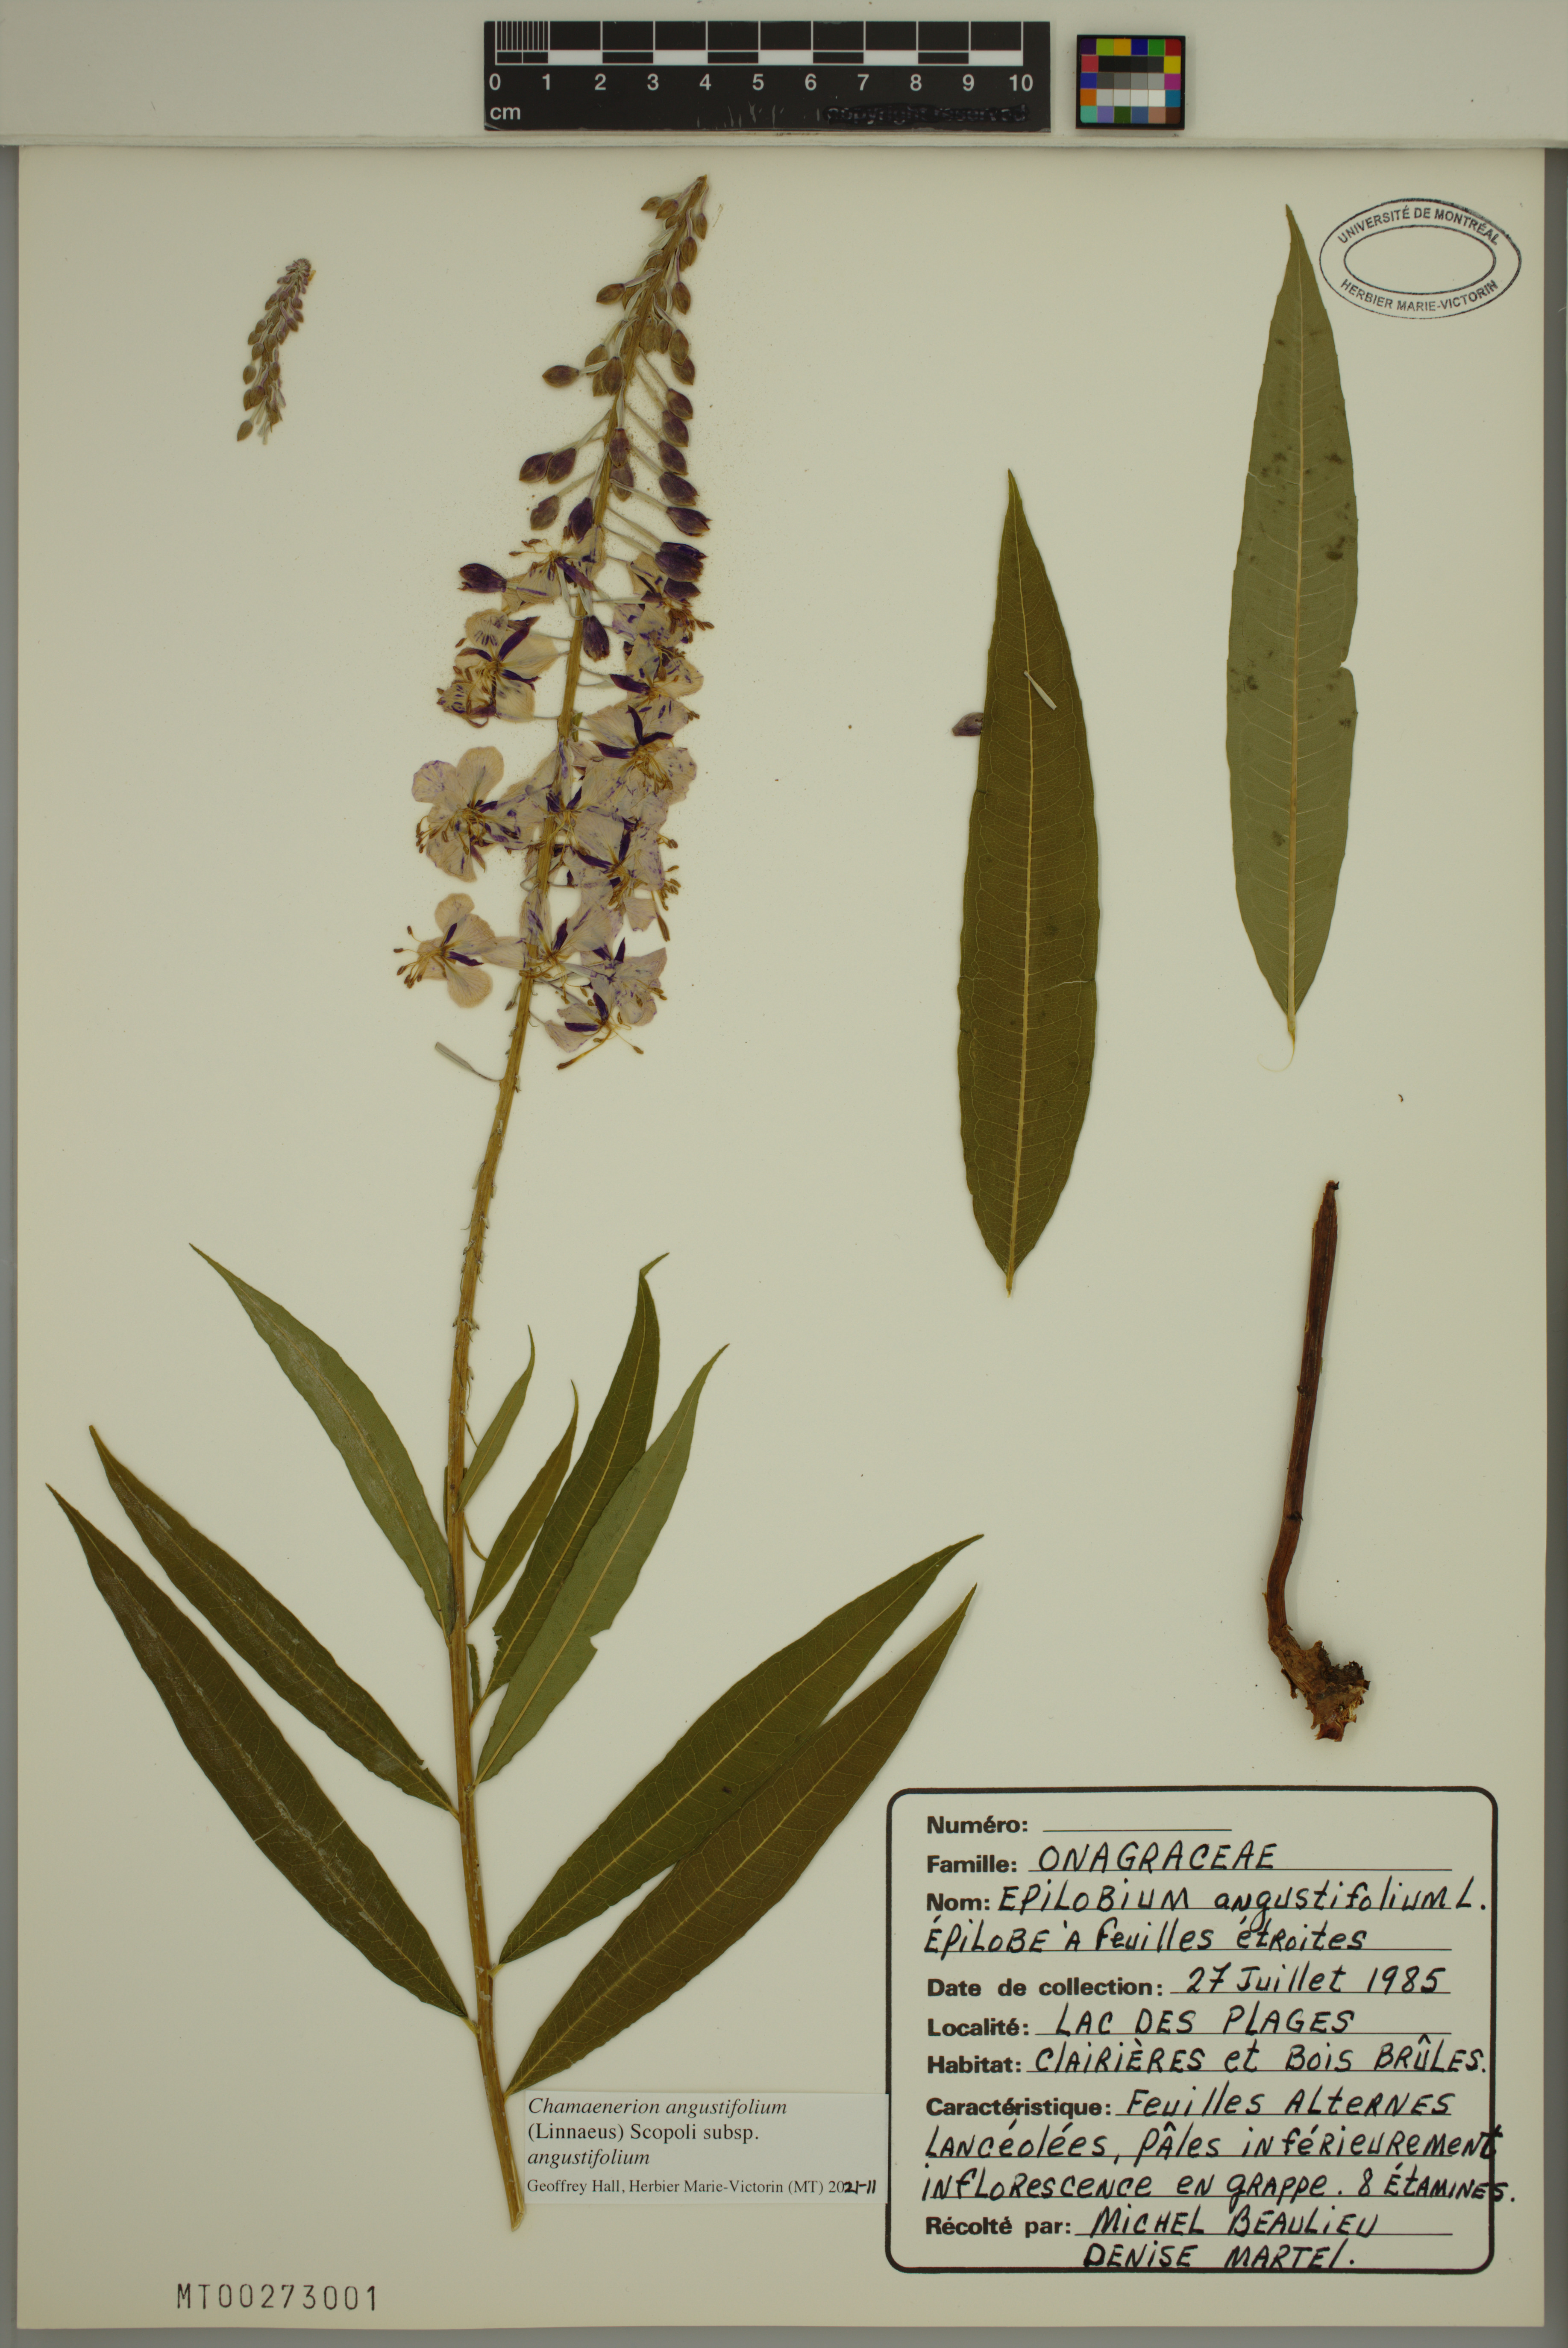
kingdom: Plantae
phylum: Tracheophyta
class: Magnoliopsida
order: Myrtales
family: Onagraceae
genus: Chamaenerion
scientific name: Chamaenerion angustifolium
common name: Fireweed
